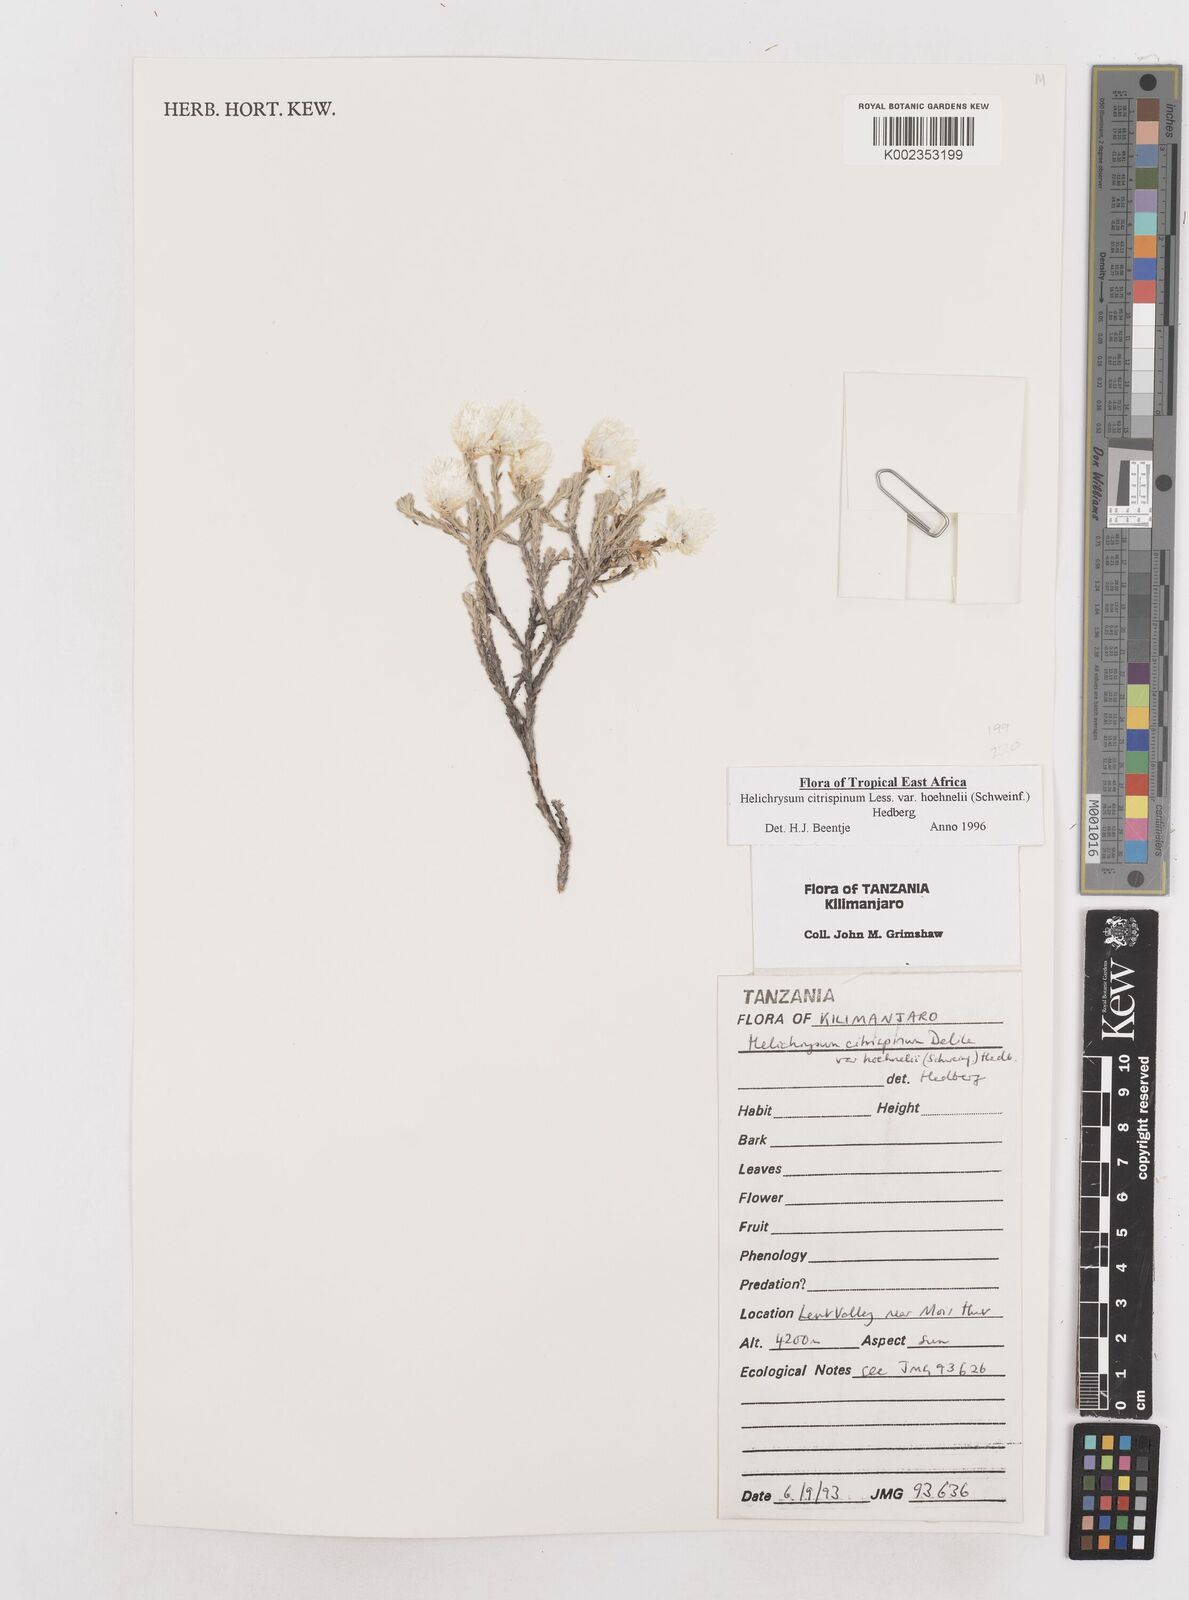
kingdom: Plantae
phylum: Tracheophyta
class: Magnoliopsida
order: Asterales
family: Asteraceae
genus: Helichrysum
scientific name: Helichrysum citrispinum
